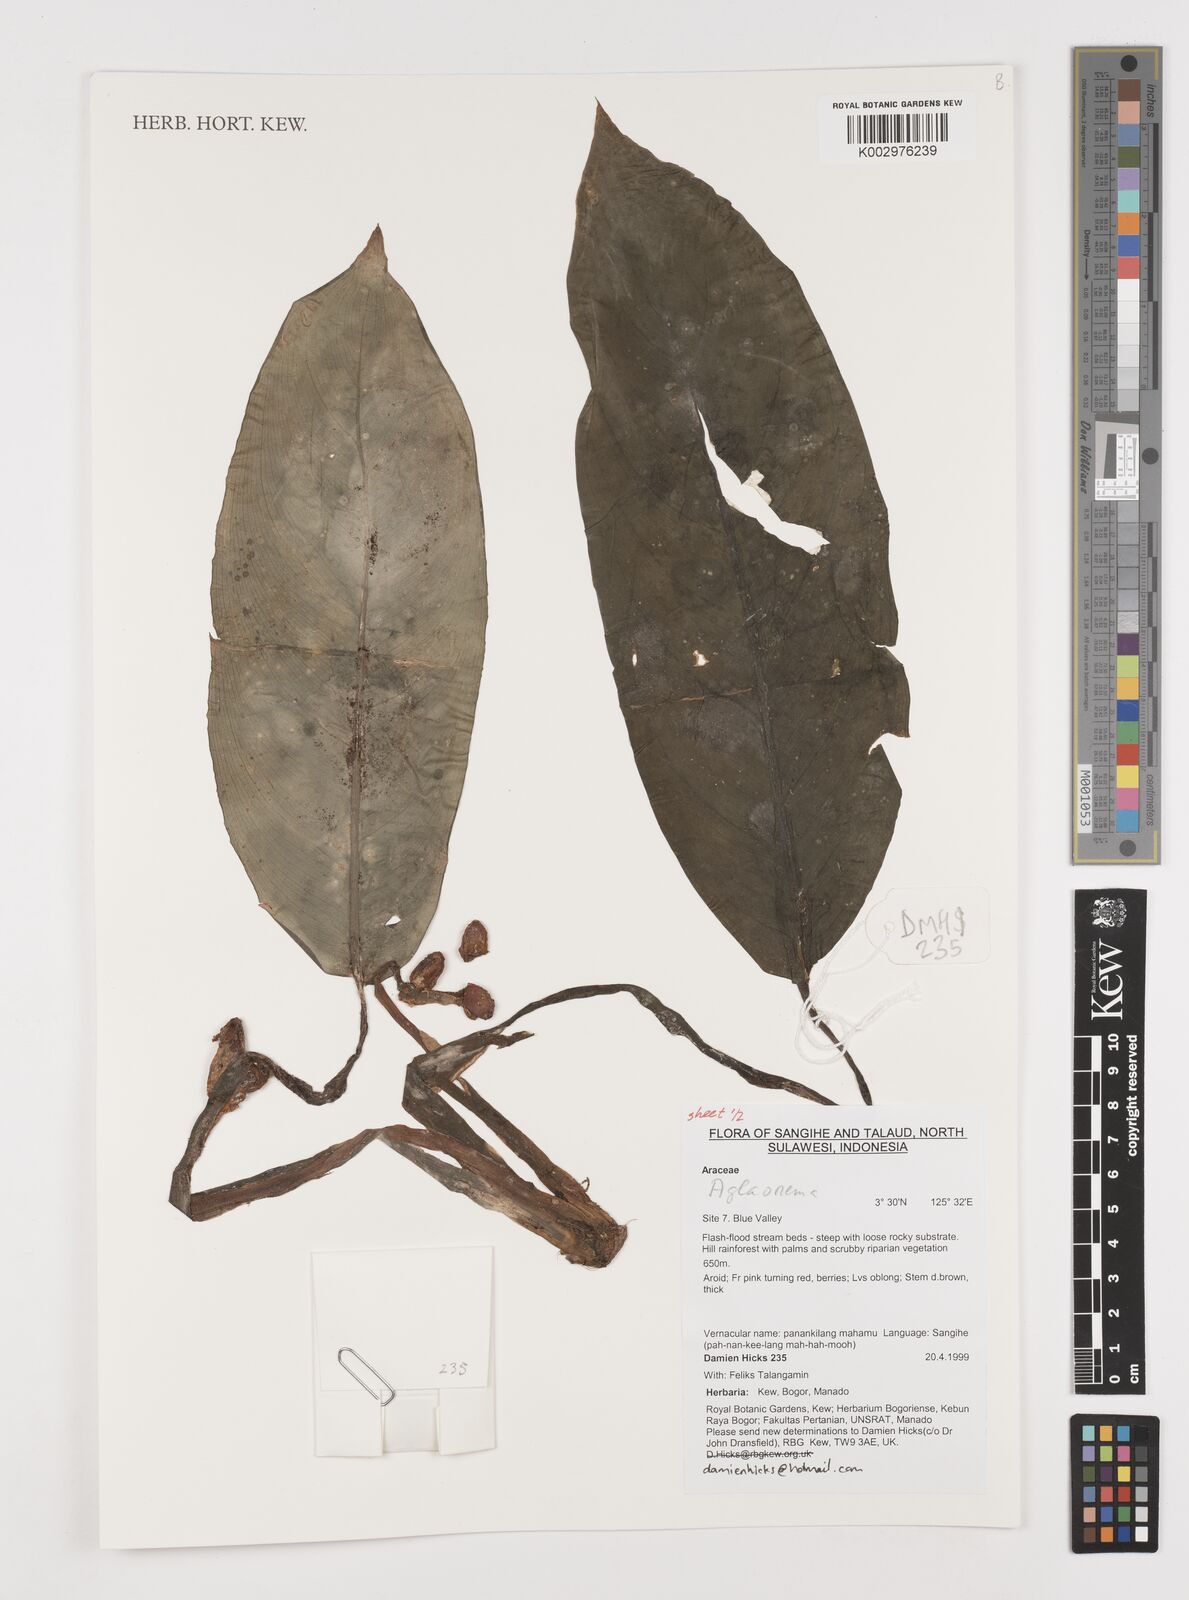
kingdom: Plantae
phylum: Tracheophyta
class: Liliopsida
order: Alismatales
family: Araceae
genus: Aglaonema
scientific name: Aglaonema
